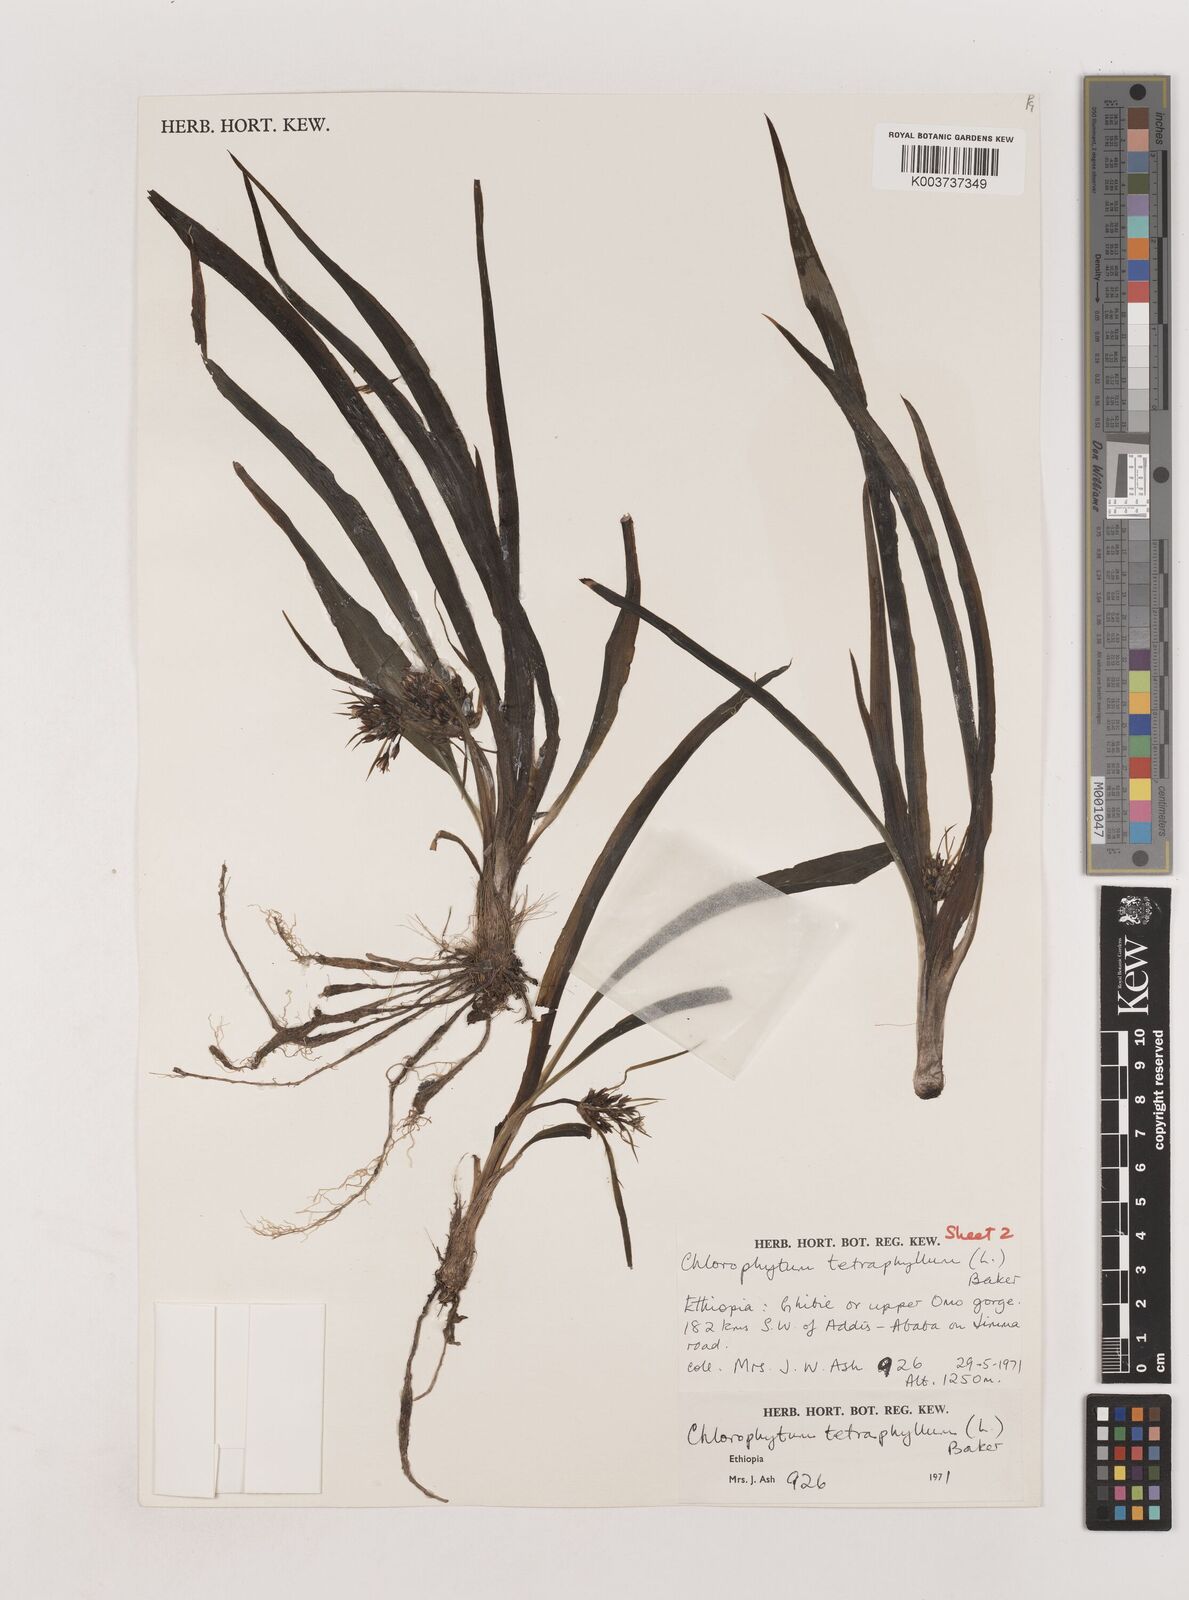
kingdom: Plantae
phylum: Tracheophyta
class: Liliopsida
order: Asparagales
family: Asparagaceae
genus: Chlorophytum
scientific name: Chlorophytum tetraphyllum
